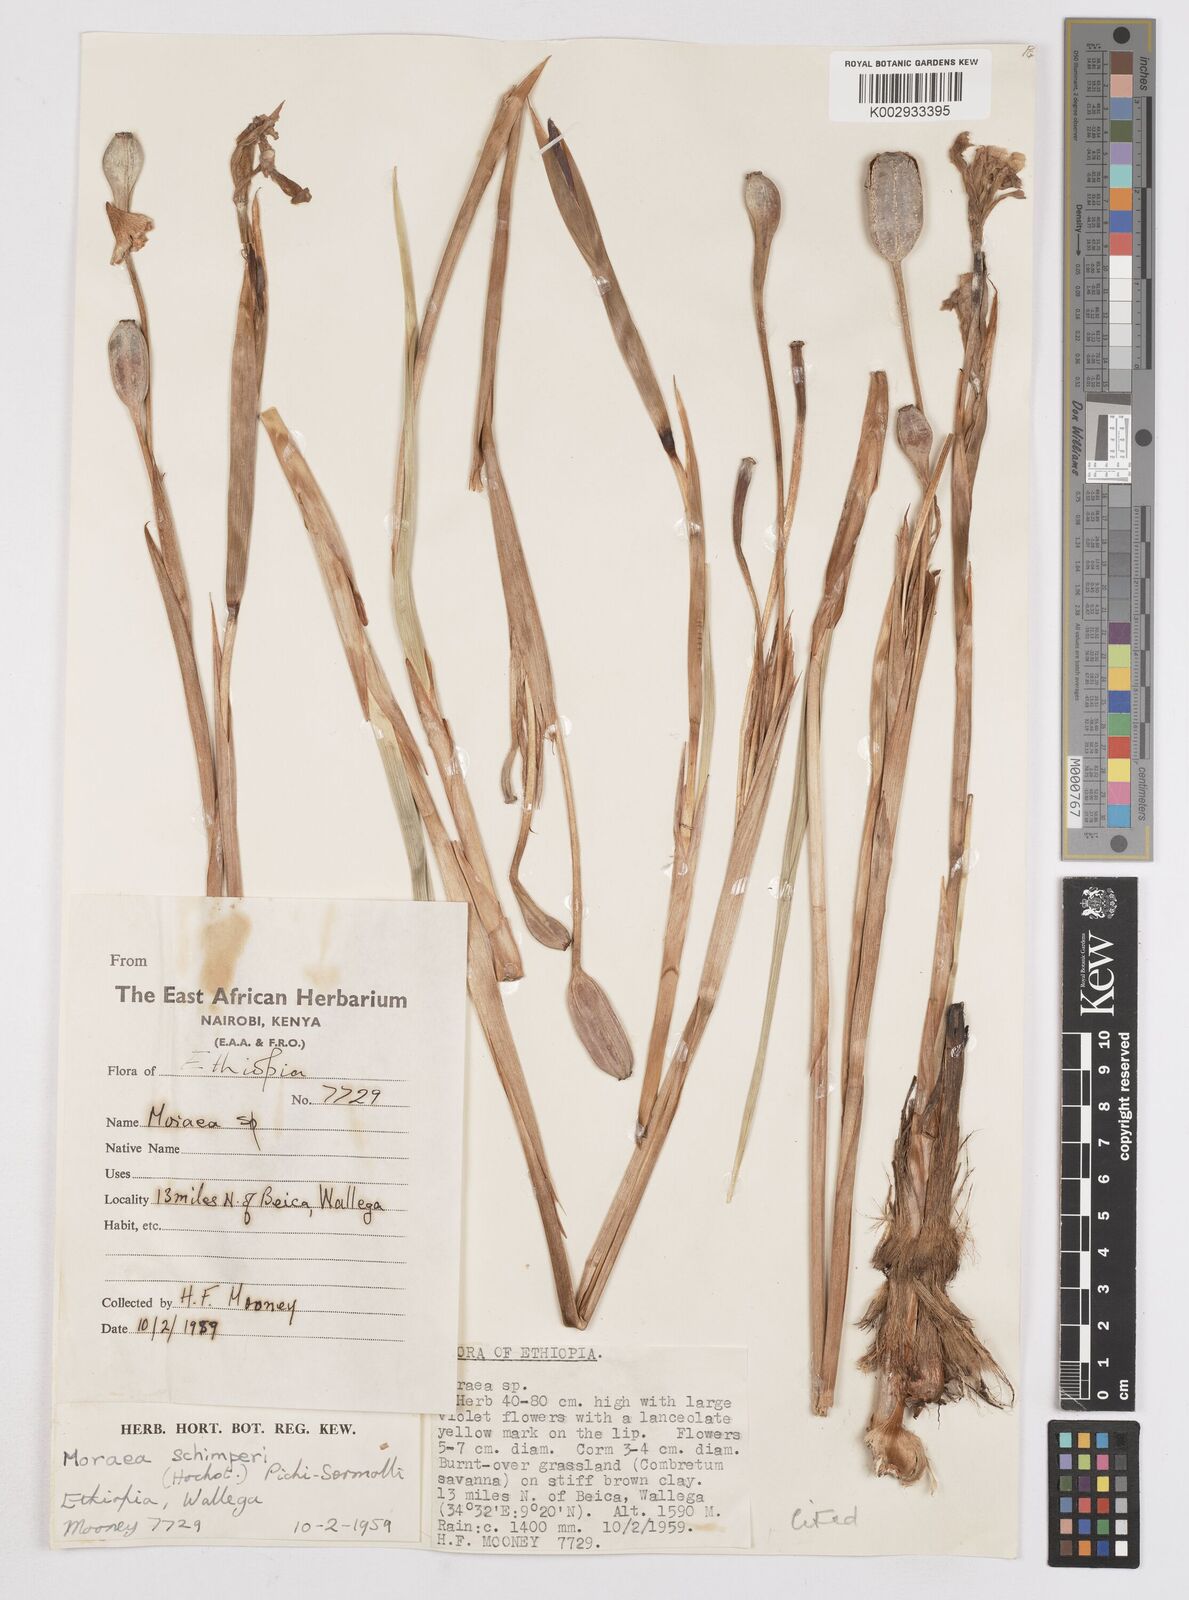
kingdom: Plantae
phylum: Tracheophyta
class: Liliopsida
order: Asparagales
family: Iridaceae
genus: Moraea
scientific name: Moraea schimperi
